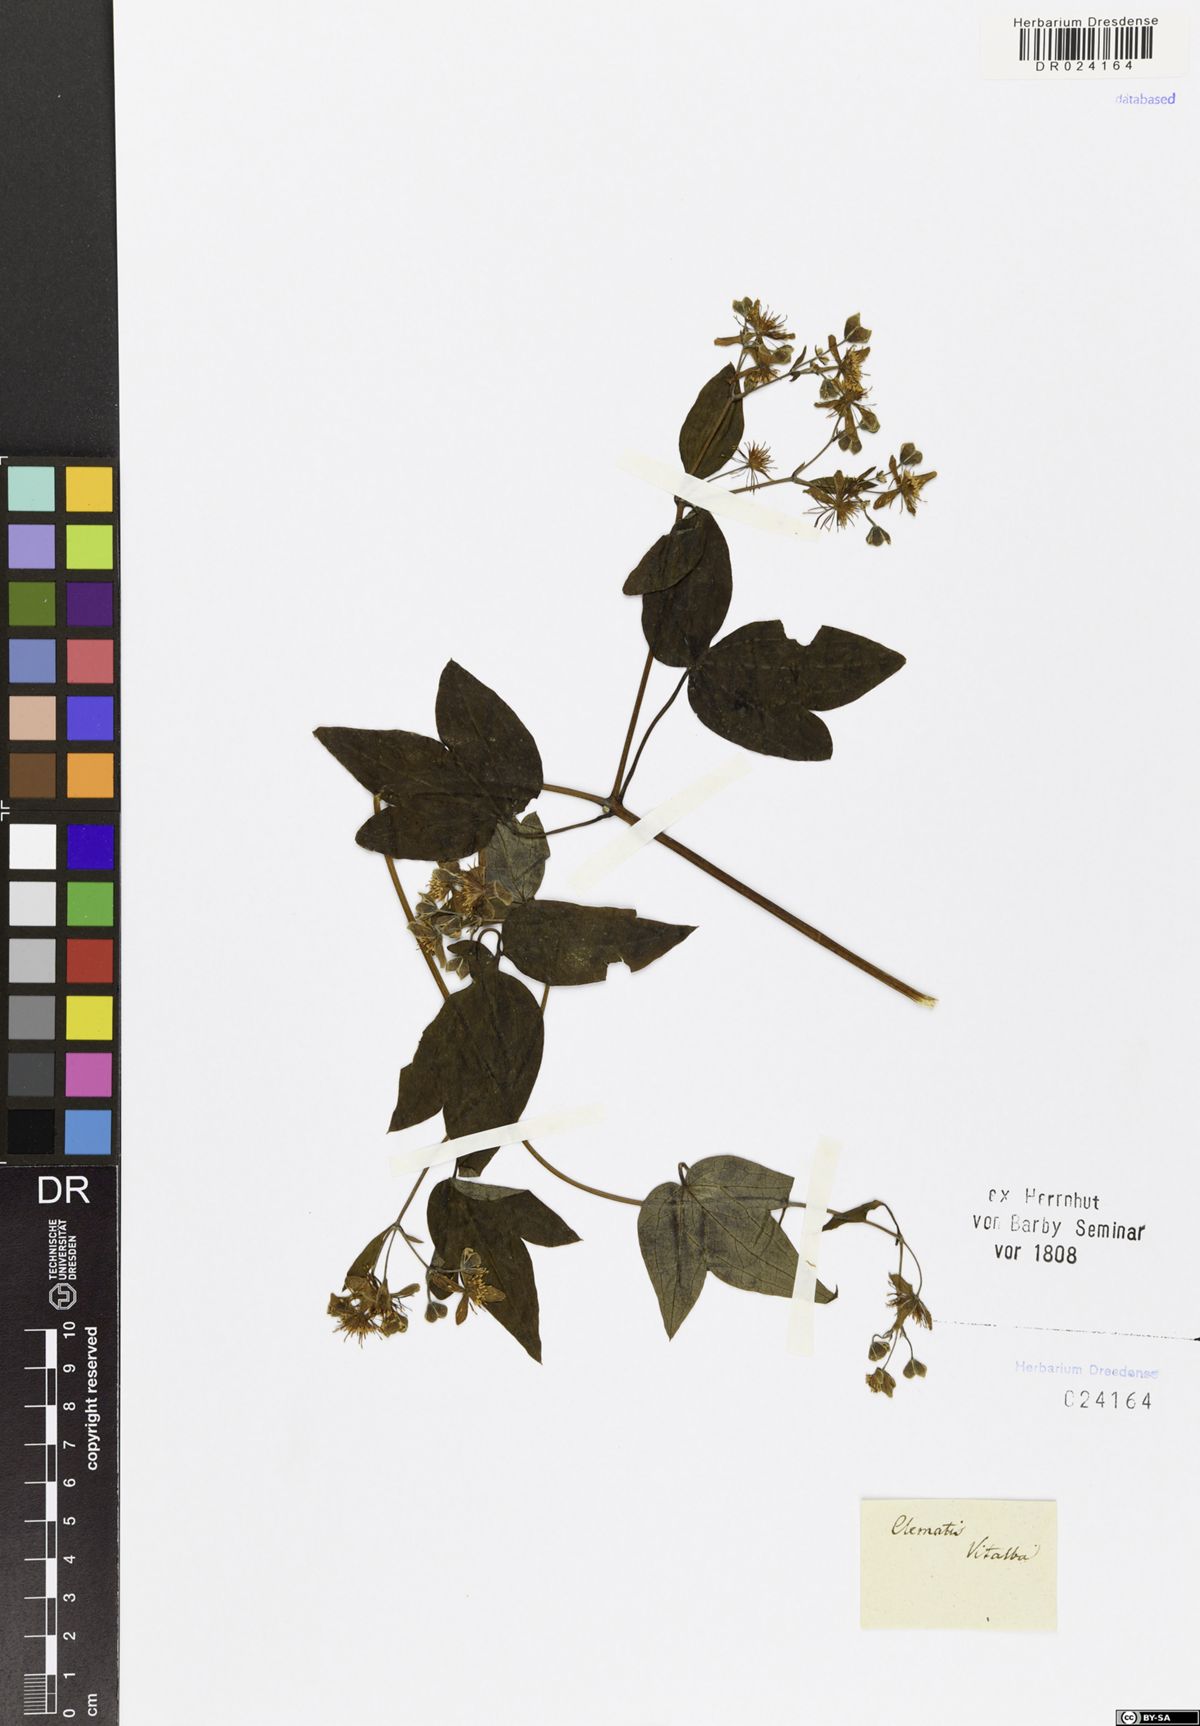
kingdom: Plantae
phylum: Tracheophyta
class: Magnoliopsida
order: Ranunculales
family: Ranunculaceae
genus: Clematis
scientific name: Clematis vitalba
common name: Evergreen clematis
